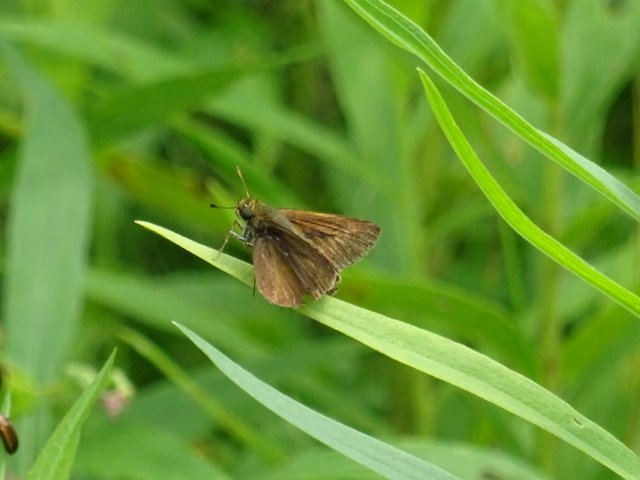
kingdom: Animalia
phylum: Arthropoda
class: Insecta
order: Lepidoptera
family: Hesperiidae
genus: Euphyes
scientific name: Euphyes vestris
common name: Dun Skipper
